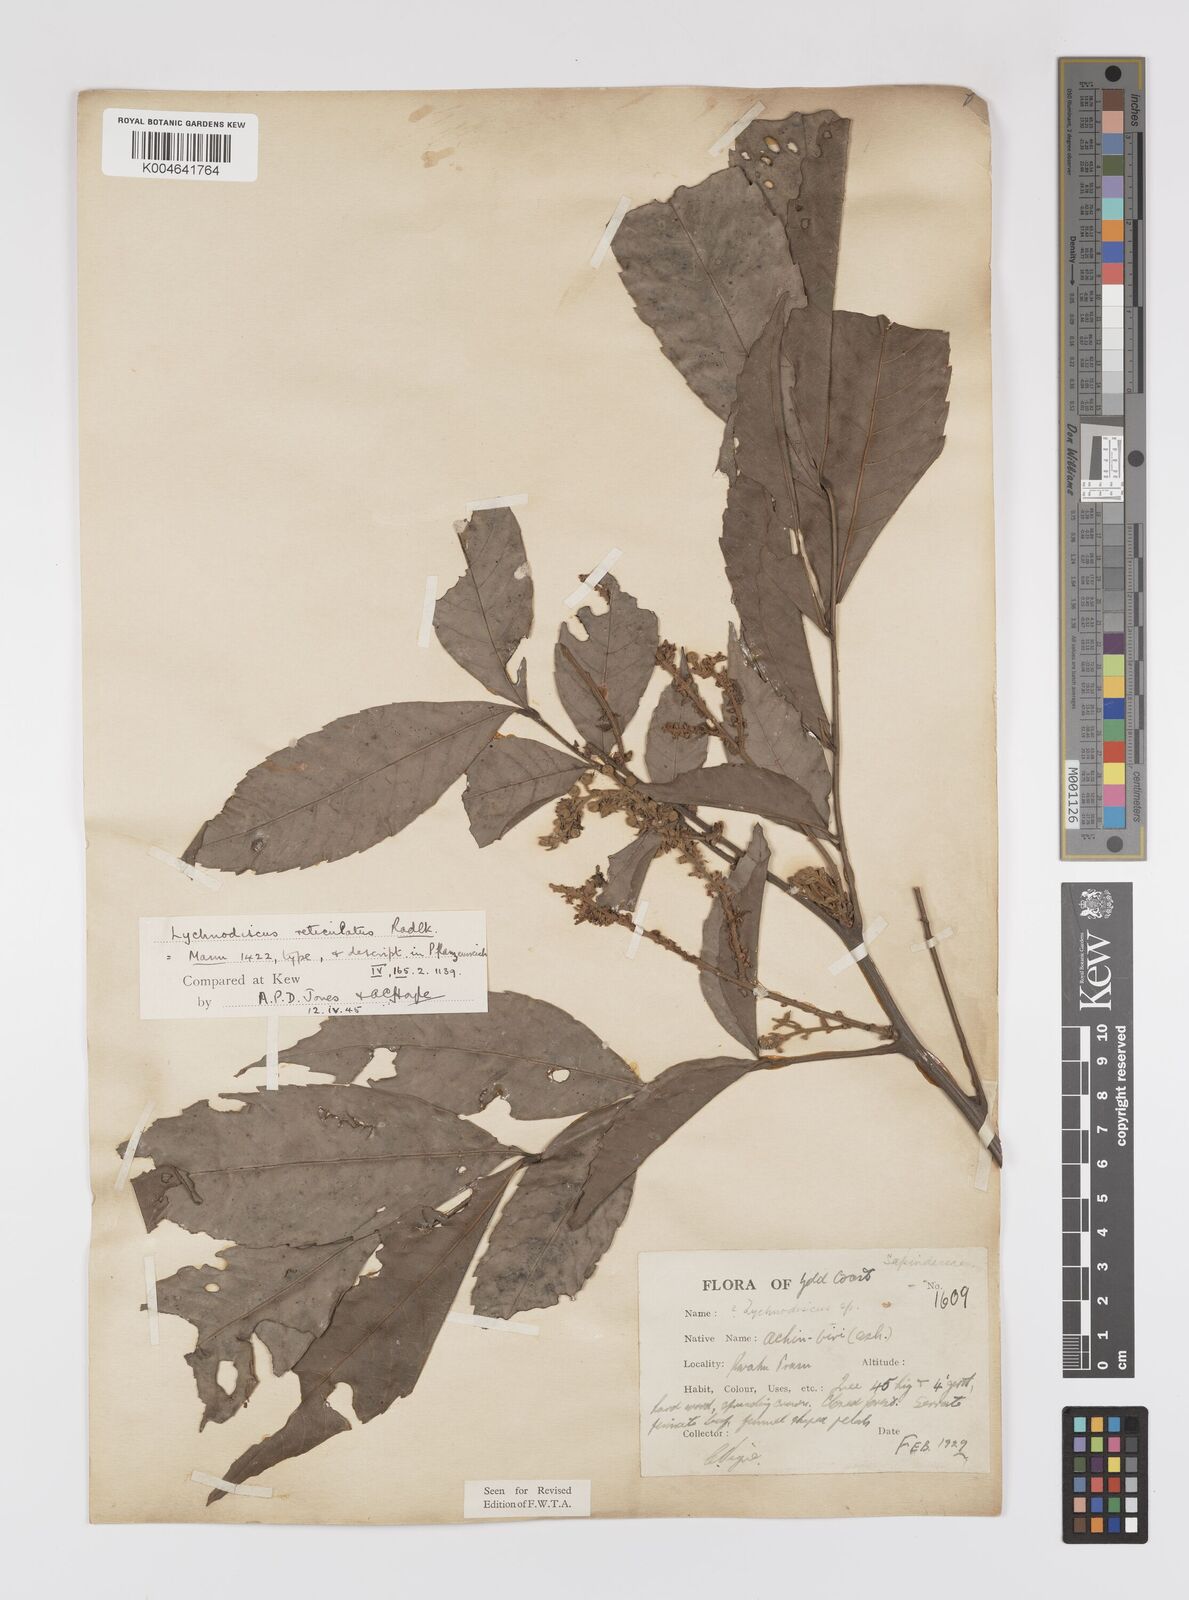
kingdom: Plantae
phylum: Tracheophyta
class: Magnoliopsida
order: Sapindales
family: Sapindaceae
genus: Lychnodiscus
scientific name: Lychnodiscus reticulatus
